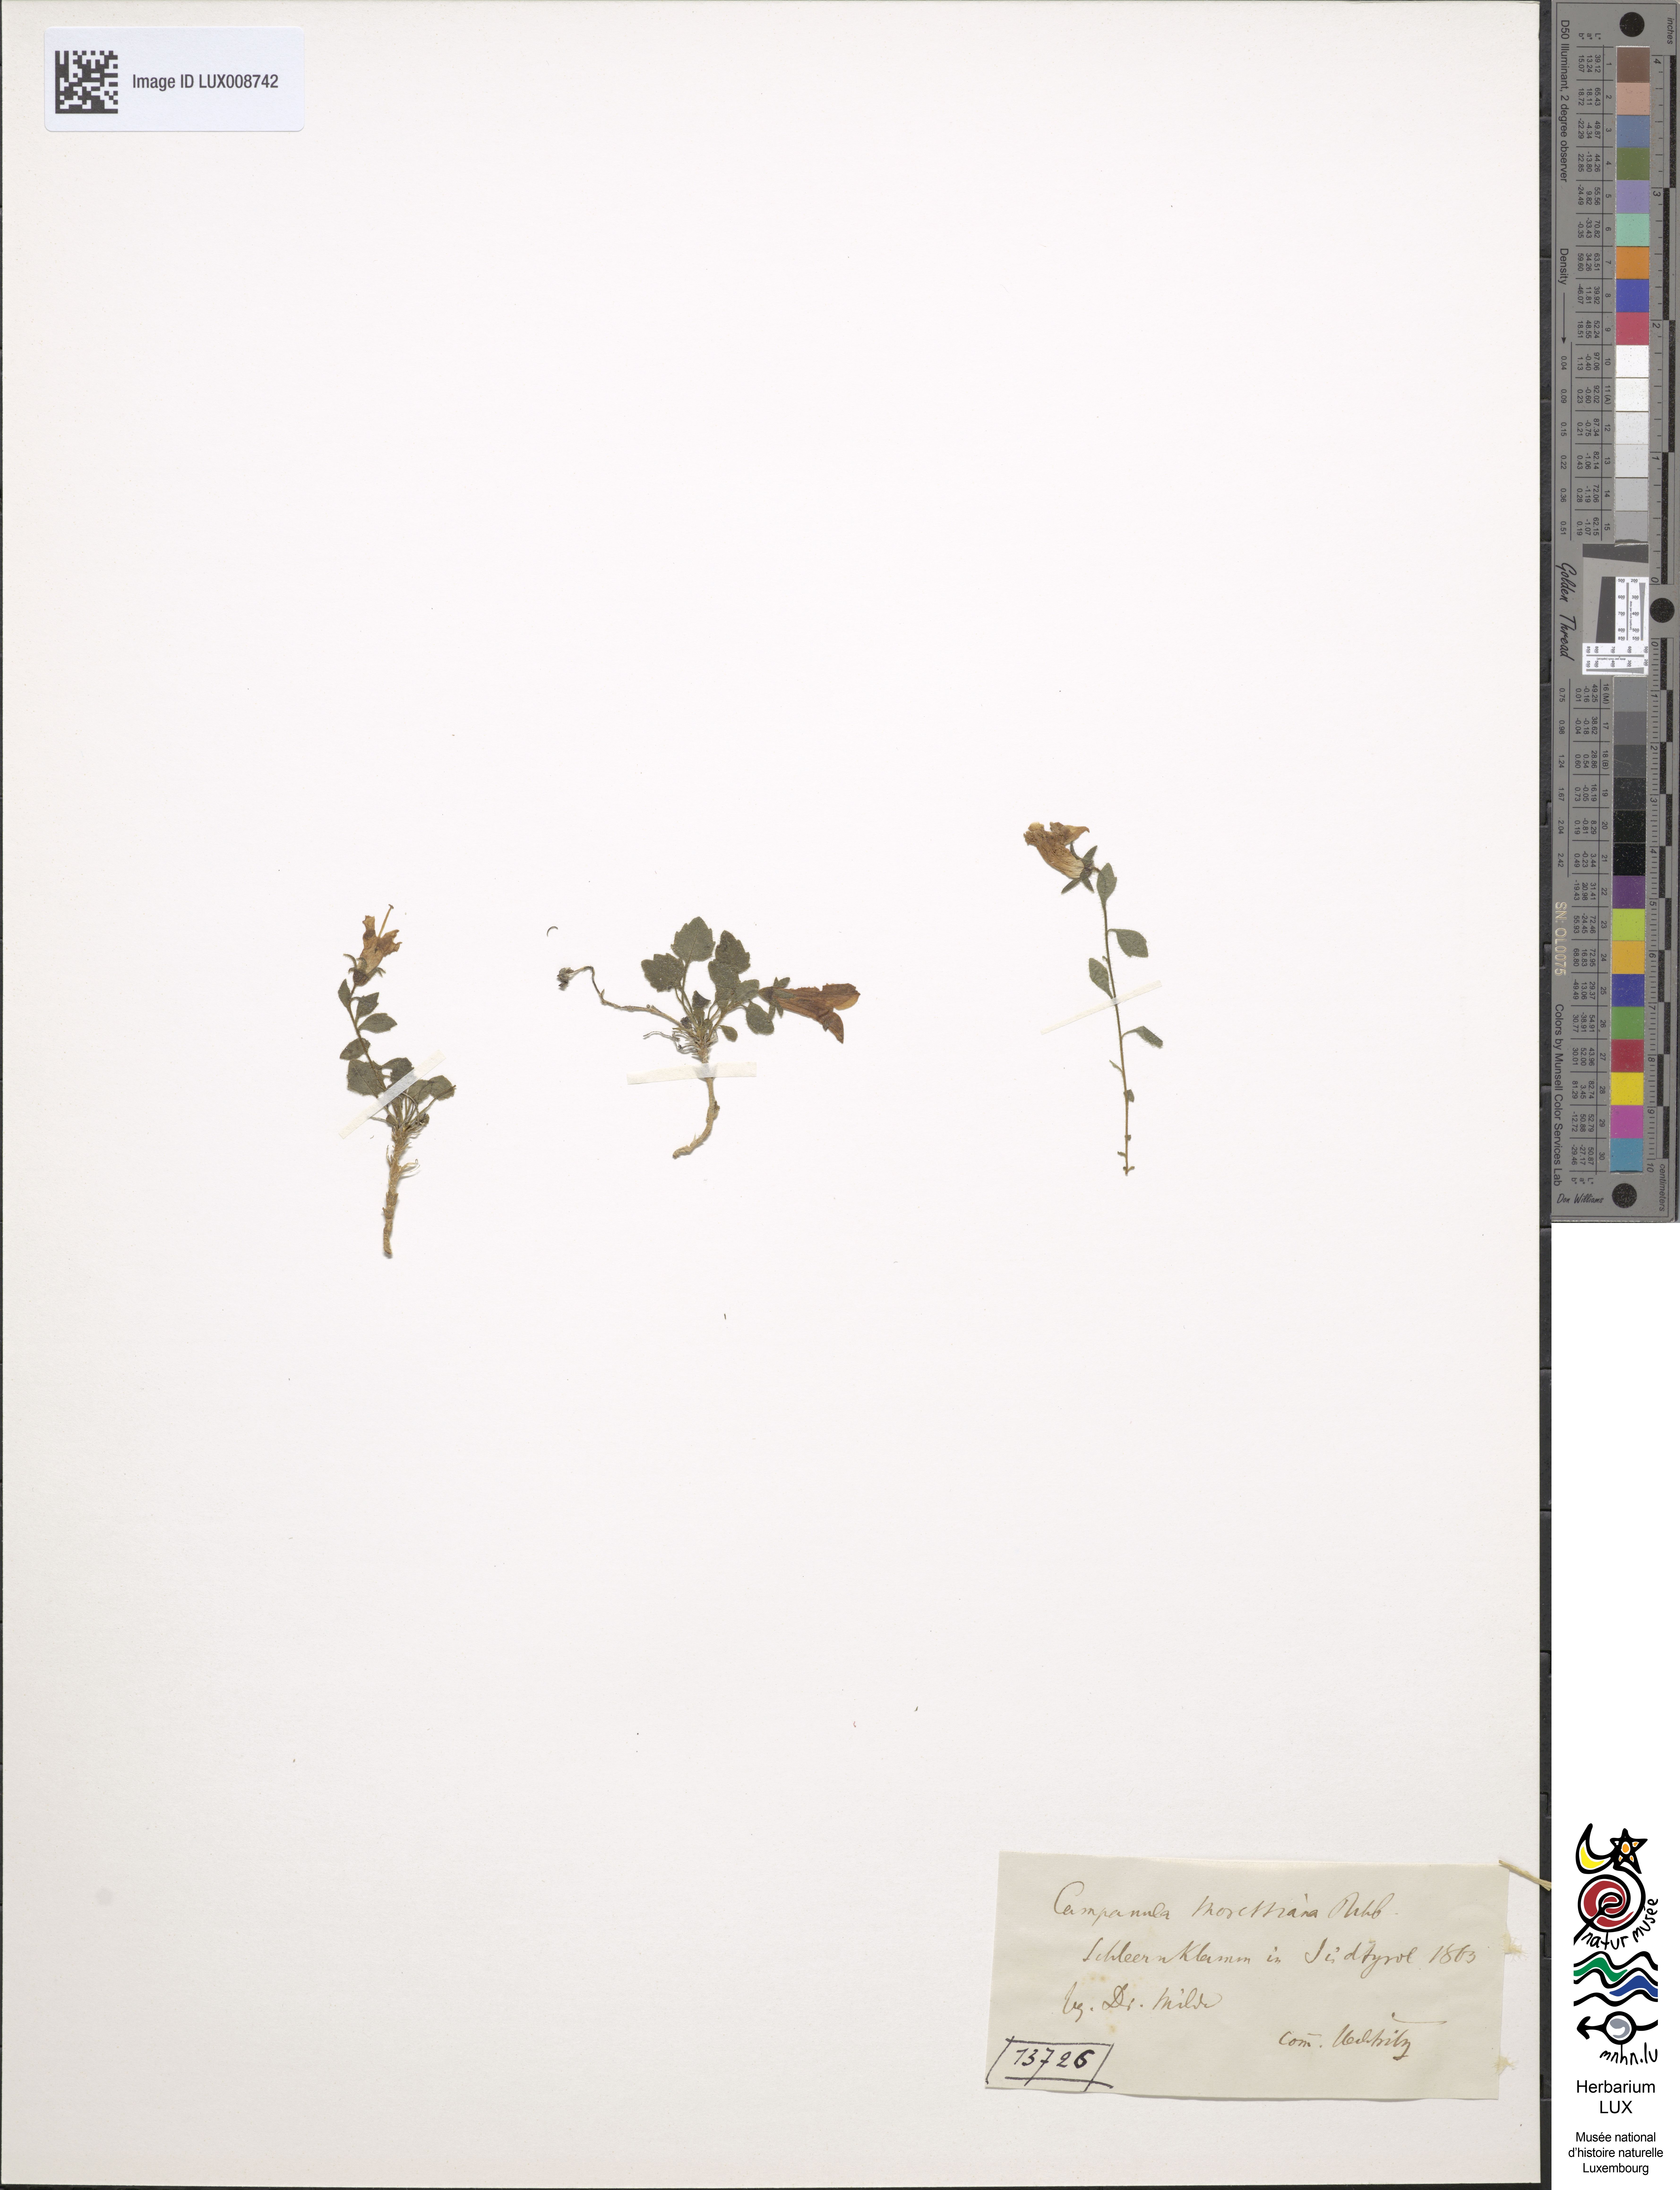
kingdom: Plantae
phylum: Tracheophyta
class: Magnoliopsida
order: Asterales
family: Campanulaceae
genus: Campanula
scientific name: Campanula morettiana
